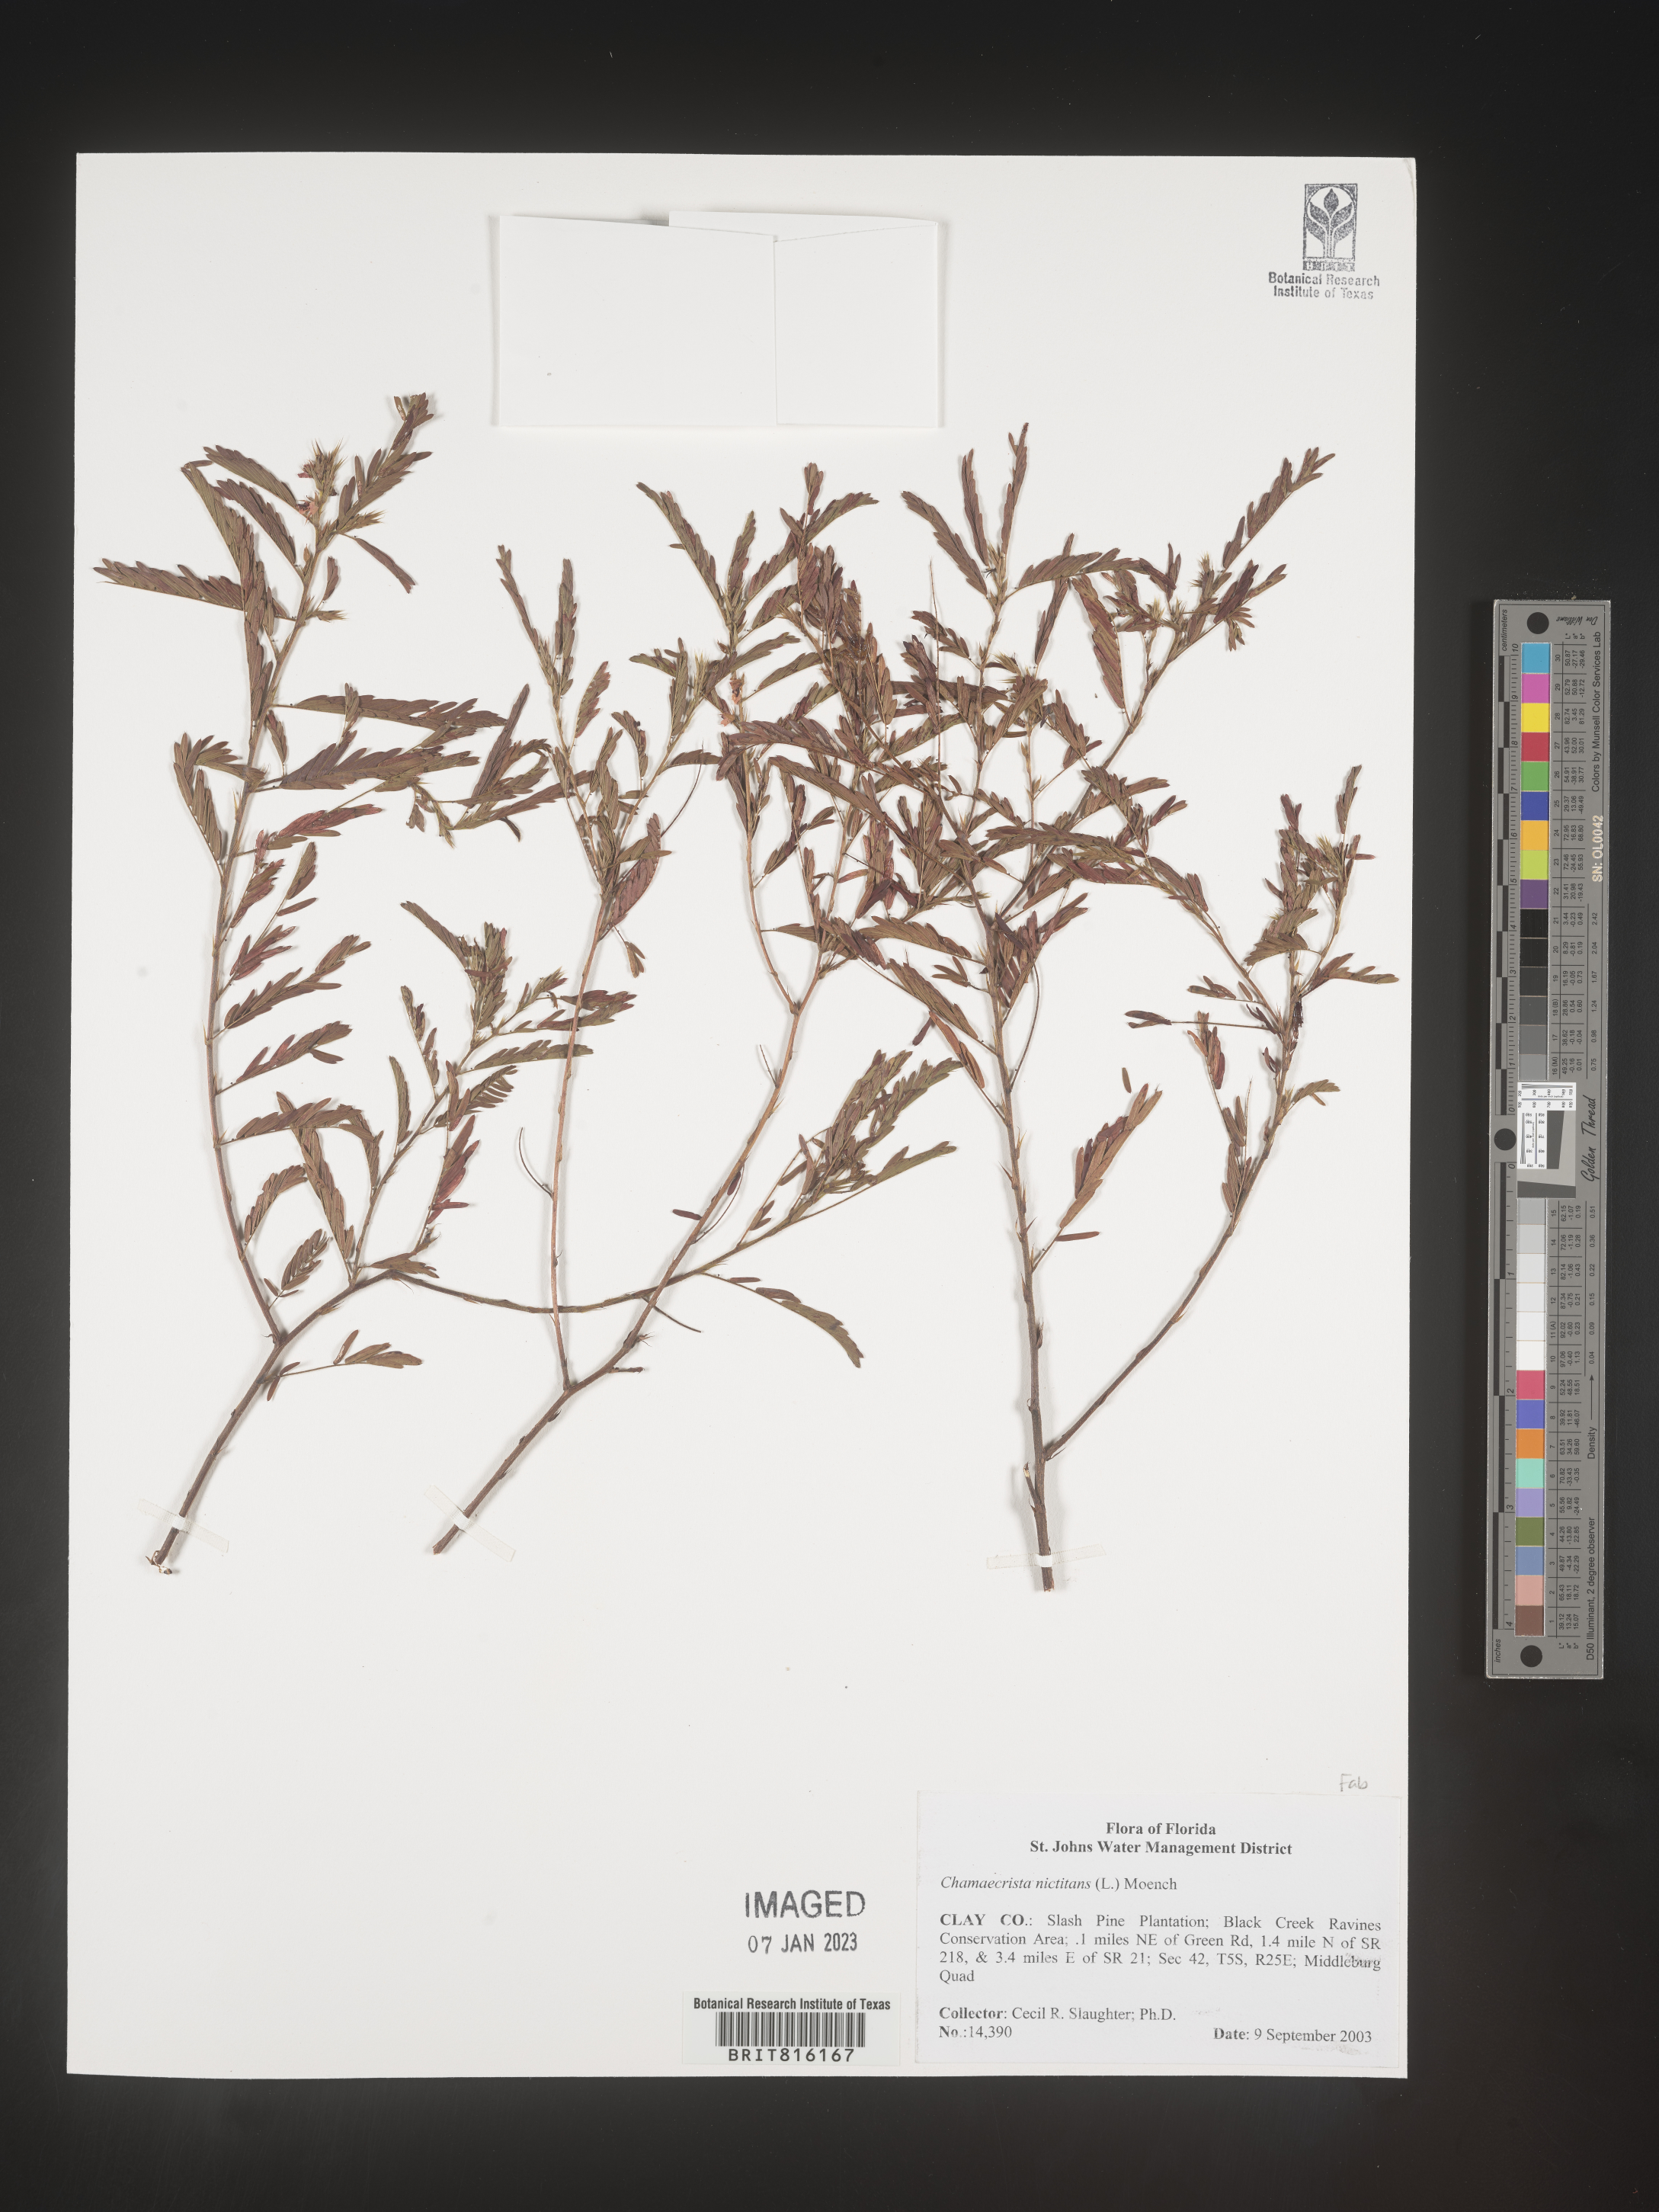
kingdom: Plantae
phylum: Tracheophyta
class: Magnoliopsida
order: Fabales
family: Fabaceae
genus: Chamaecrista
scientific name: Chamaecrista
